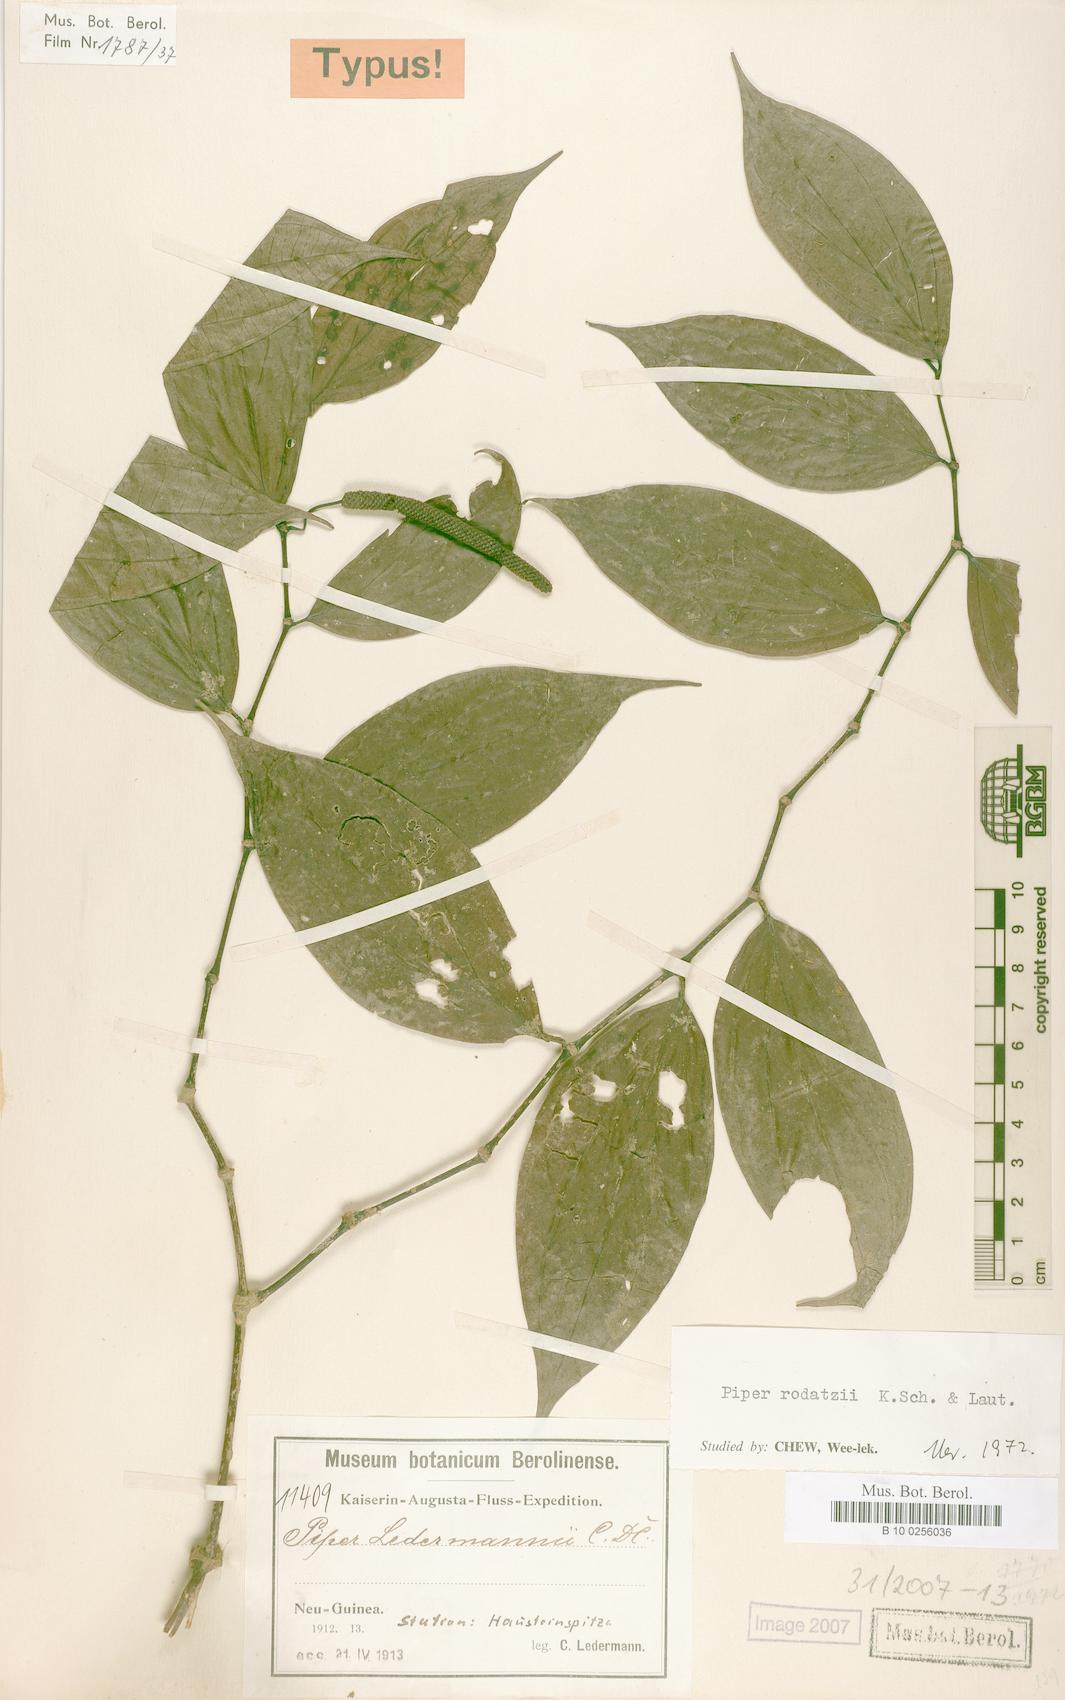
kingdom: Plantae
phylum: Tracheophyta
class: Magnoliopsida
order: Piperales
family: Piperaceae
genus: Piper
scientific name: Piper macropiper
